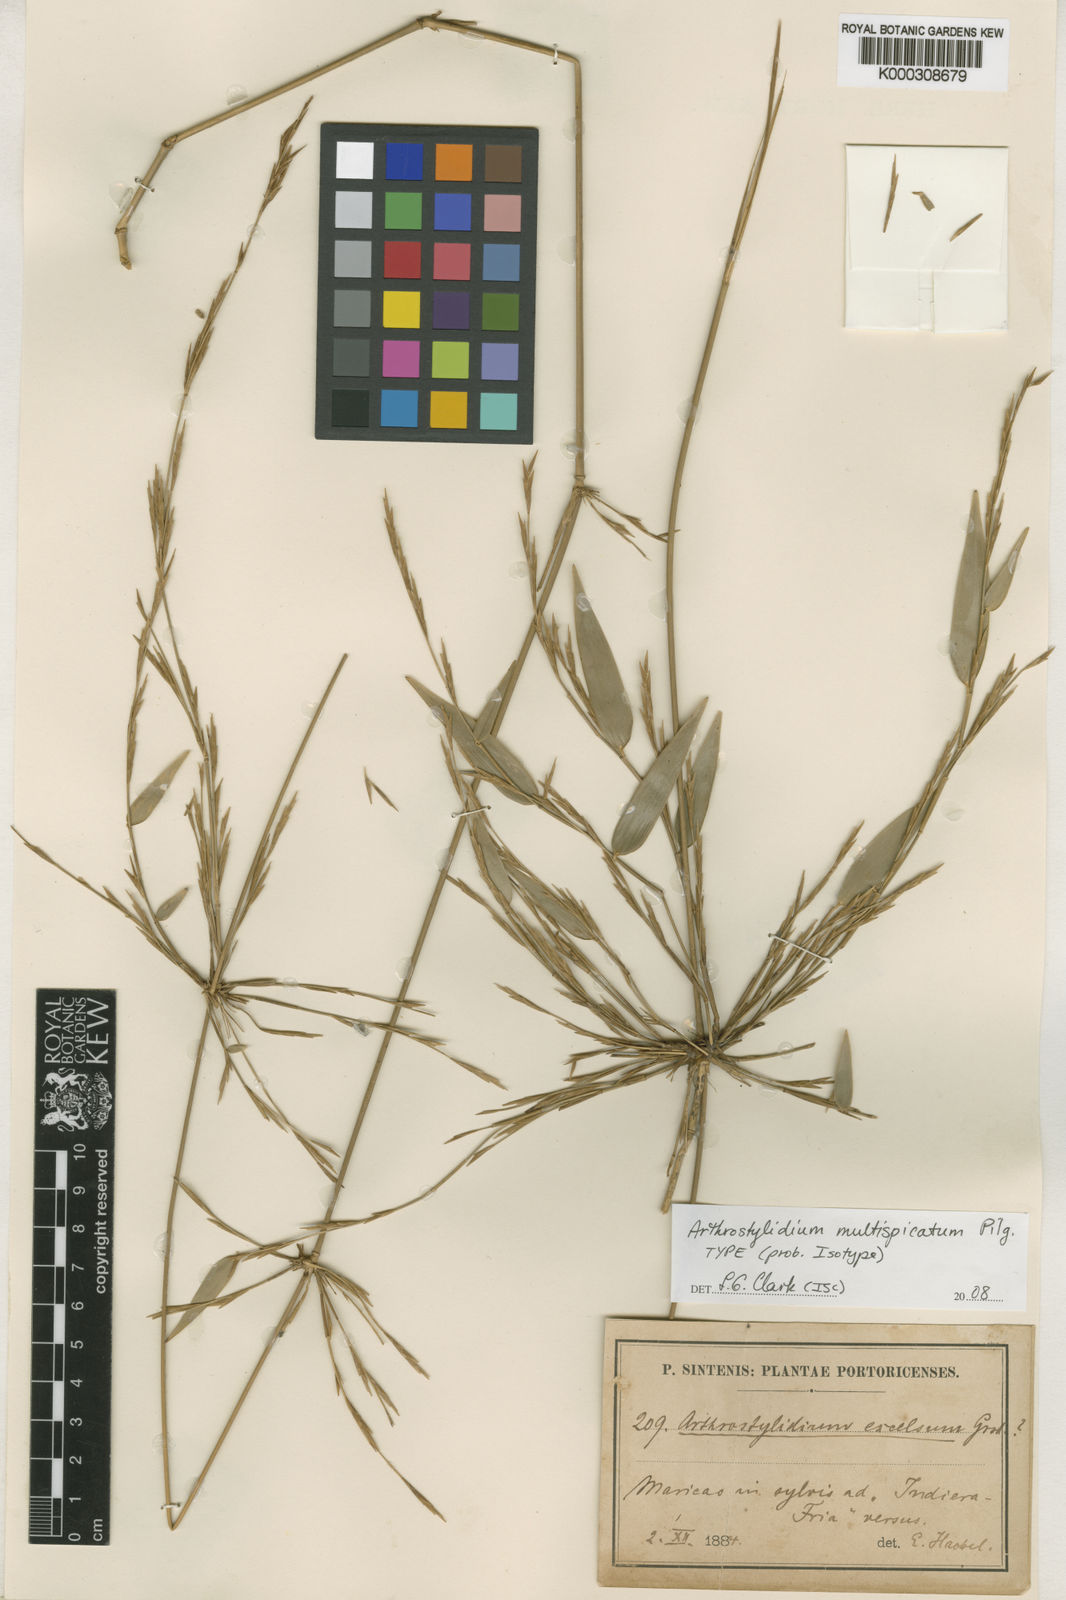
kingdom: Plantae
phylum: Tracheophyta
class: Liliopsida
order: Poales
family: Poaceae
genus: Arthrostylidium
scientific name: Arthrostylidium multispicatum
